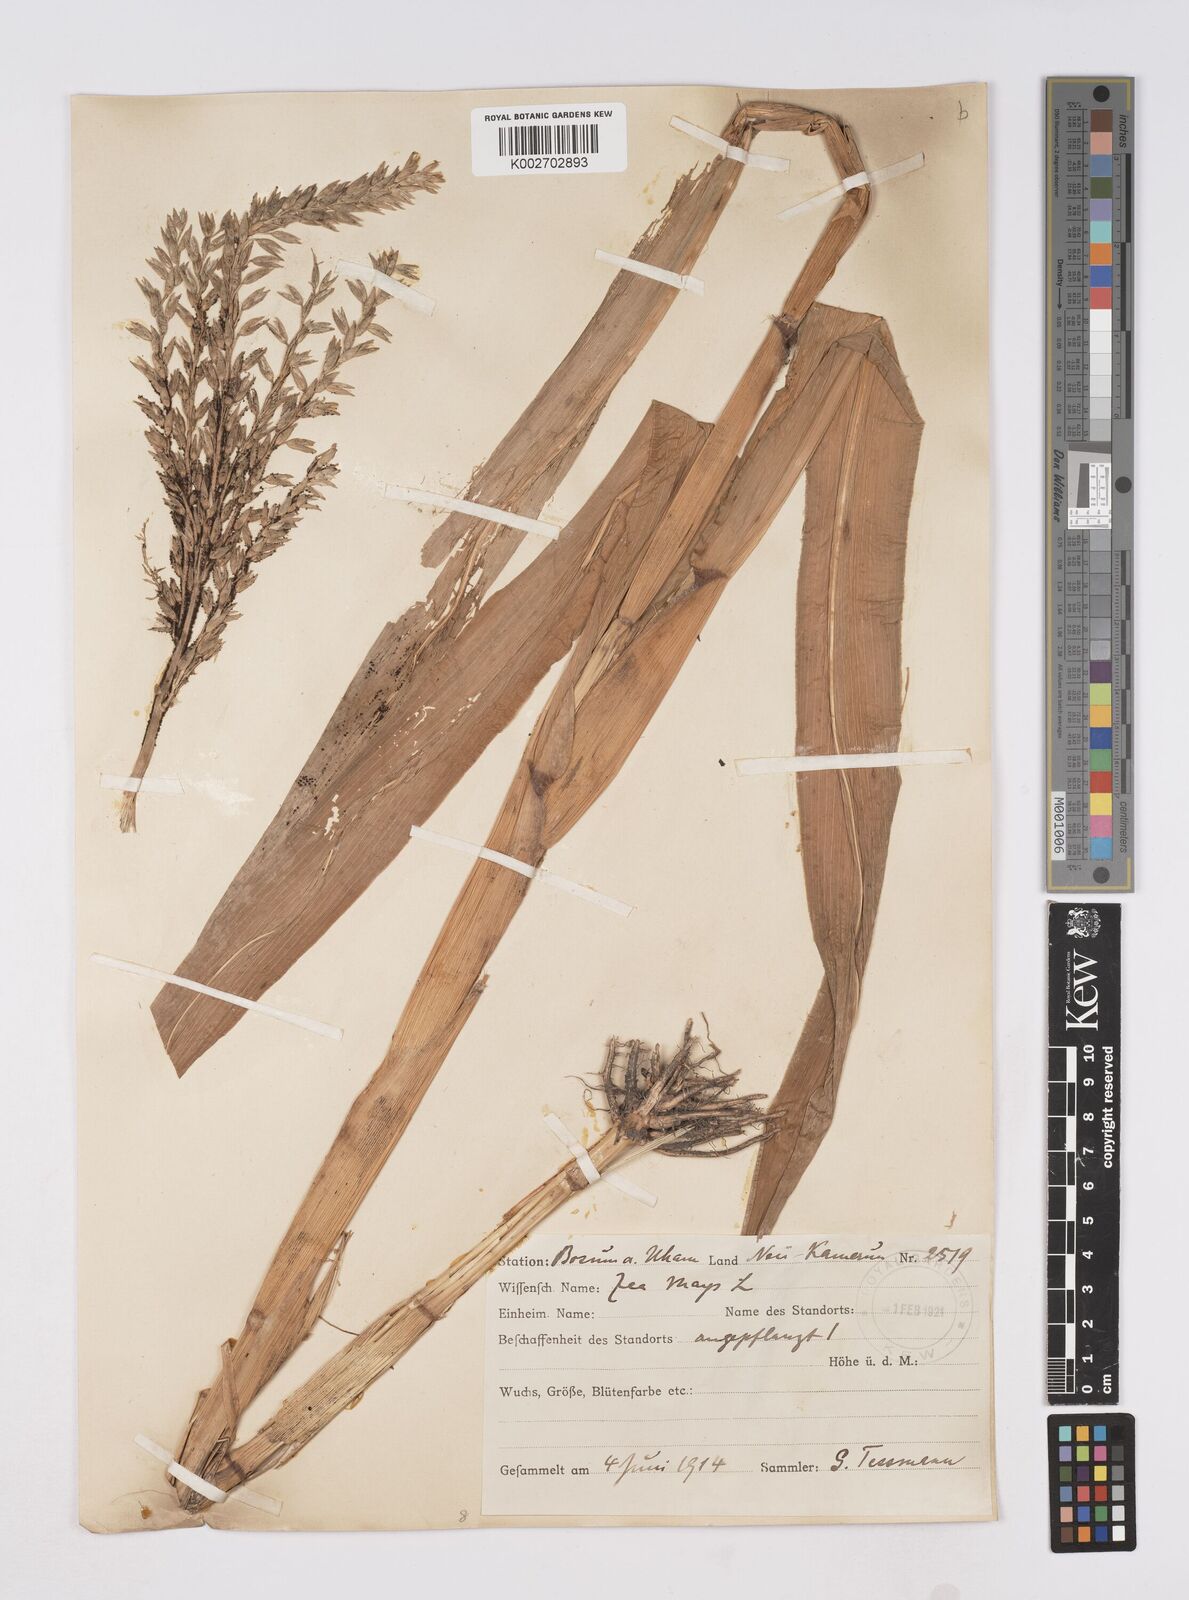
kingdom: Plantae
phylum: Tracheophyta
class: Liliopsida
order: Poales
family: Poaceae
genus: Zea
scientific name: Zea mays
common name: Maize
